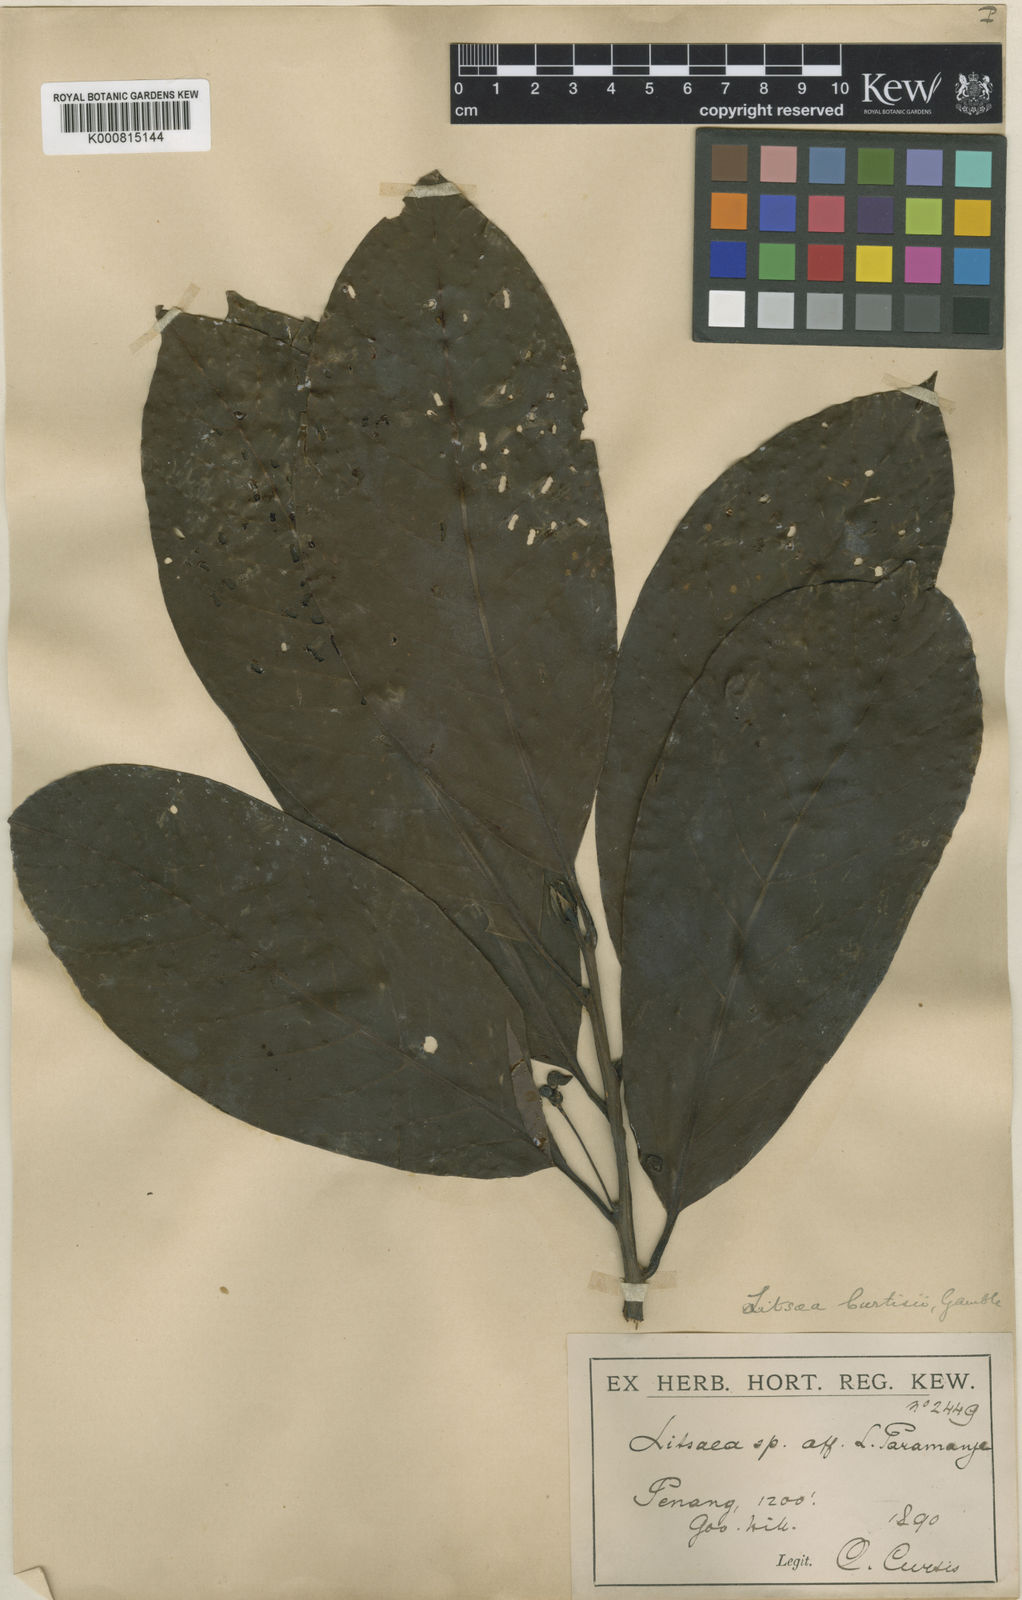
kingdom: Plantae
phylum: Tracheophyta
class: Magnoliopsida
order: Laurales
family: Lauraceae
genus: Litsea
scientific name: Litsea curtisii
